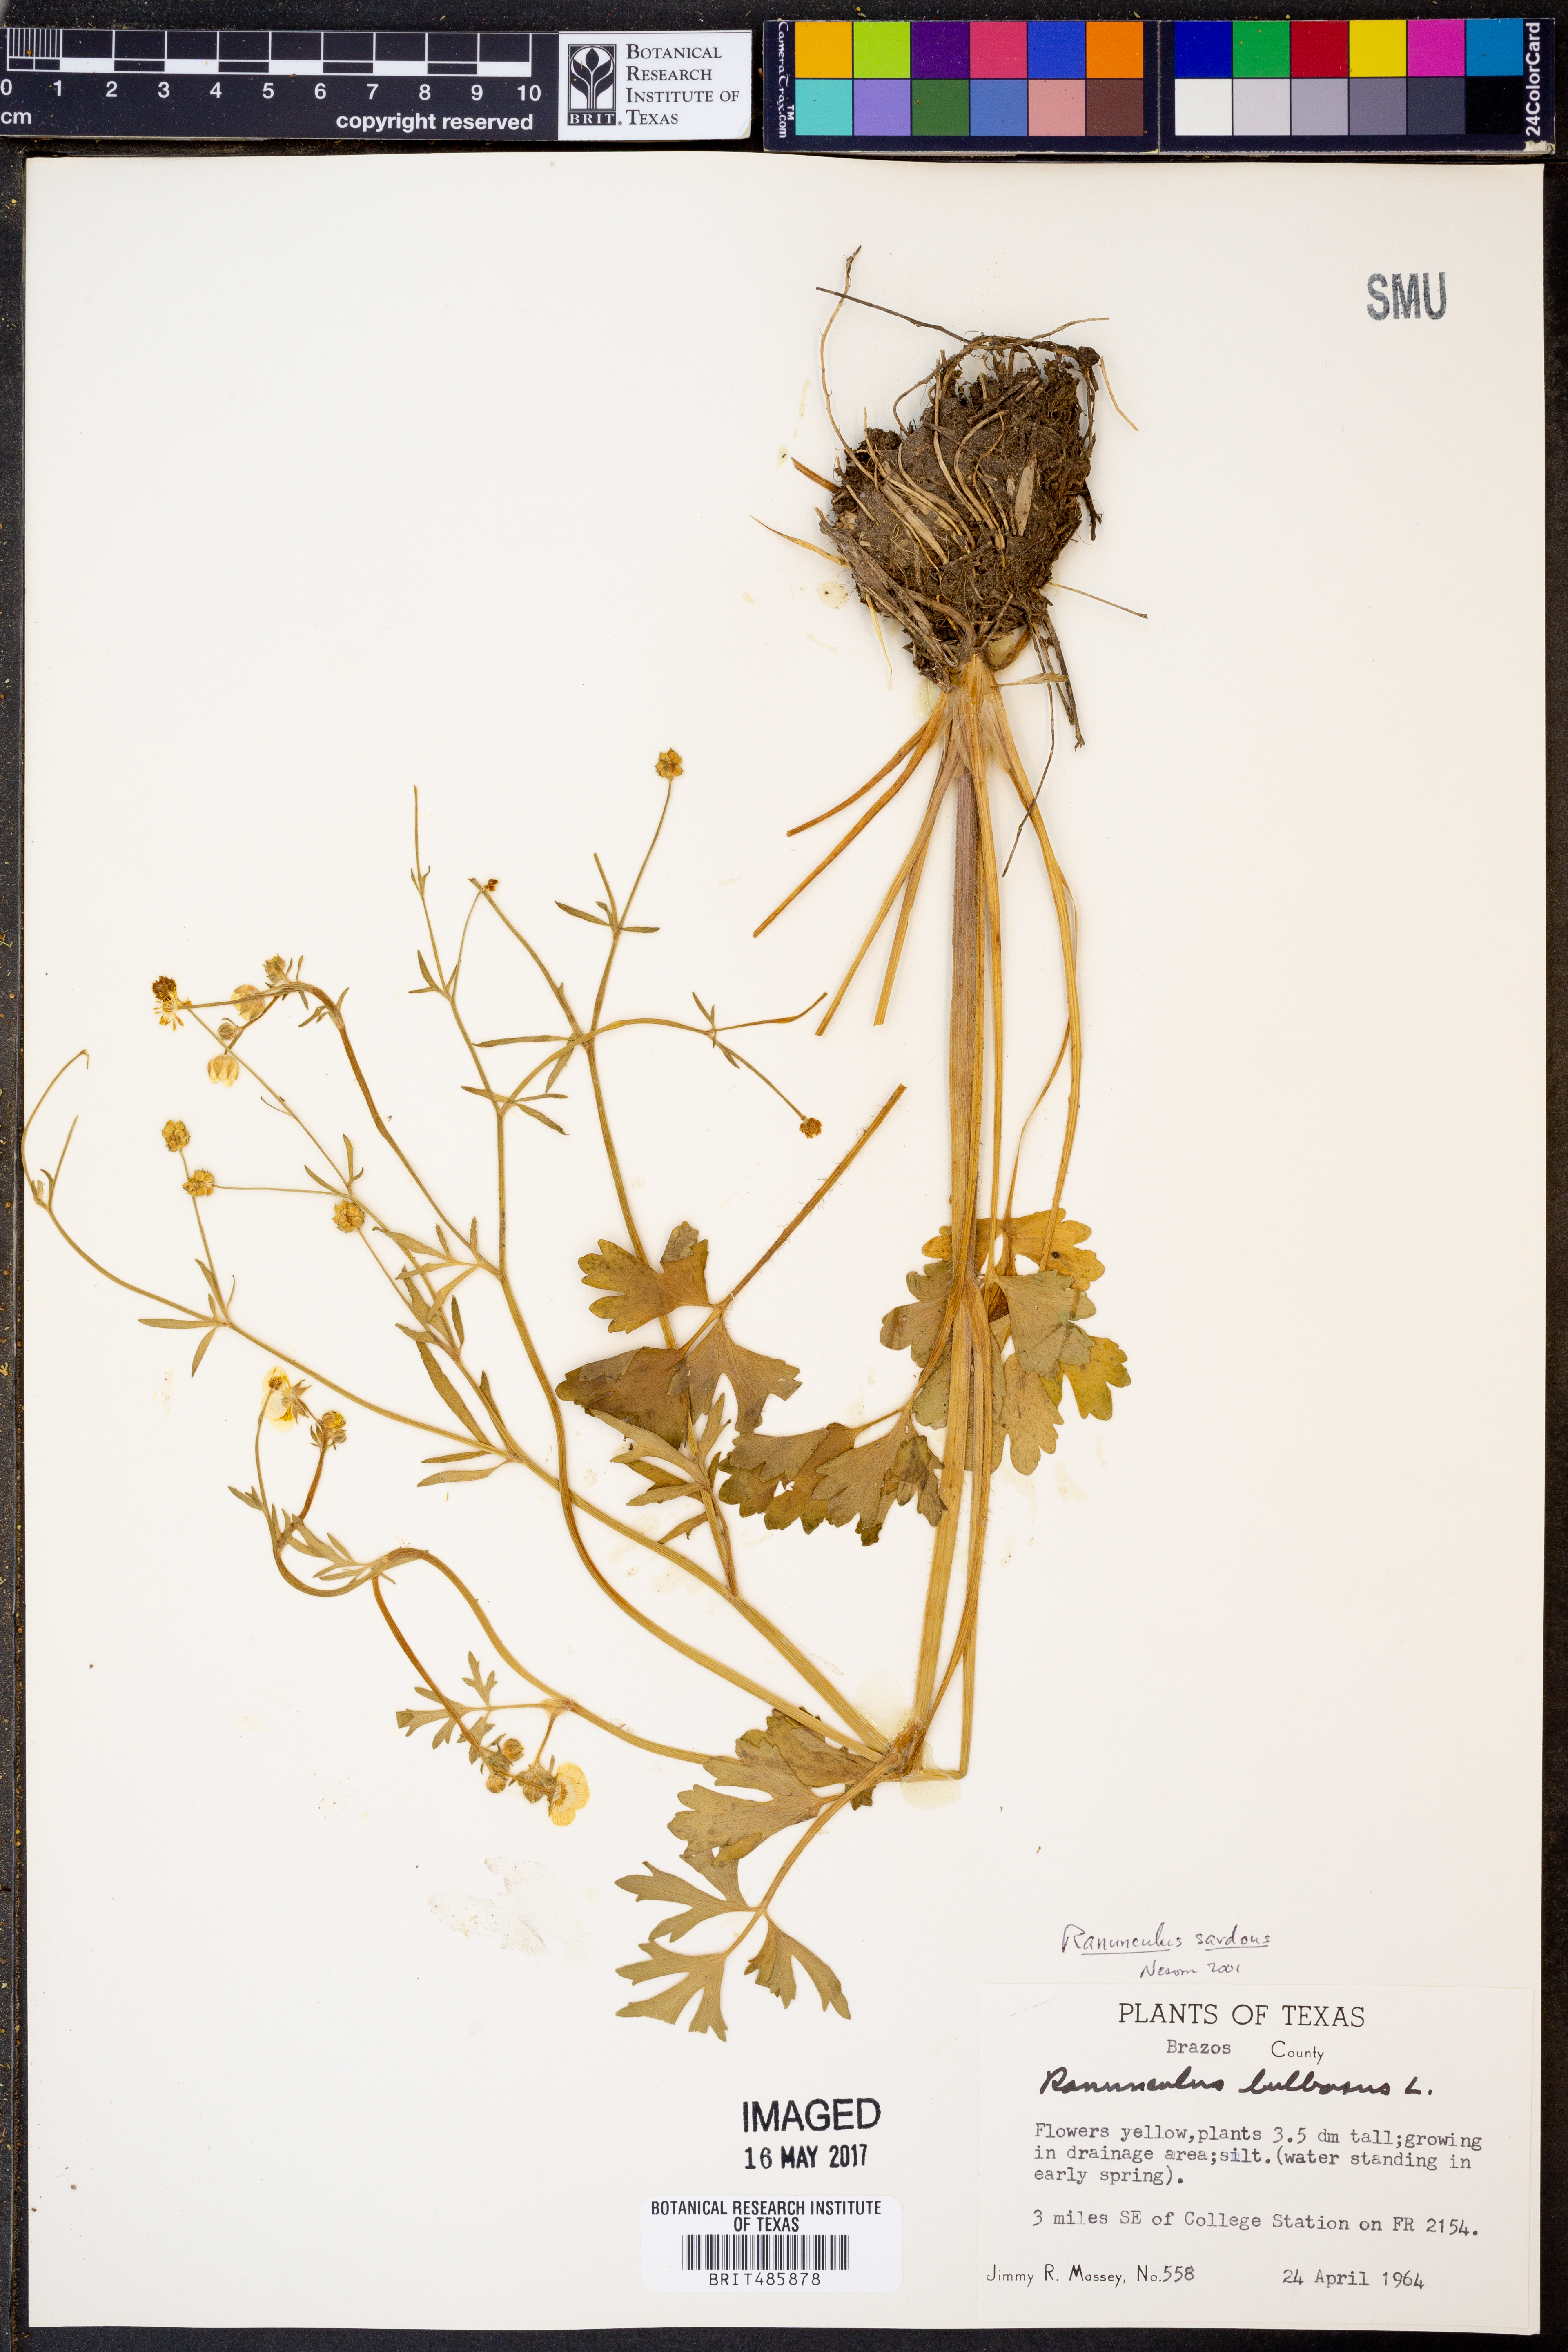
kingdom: Plantae
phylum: Tracheophyta
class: Magnoliopsida
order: Ranunculales
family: Ranunculaceae
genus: Ranunculus
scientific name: Ranunculus sardous
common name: Hairy buttercup
